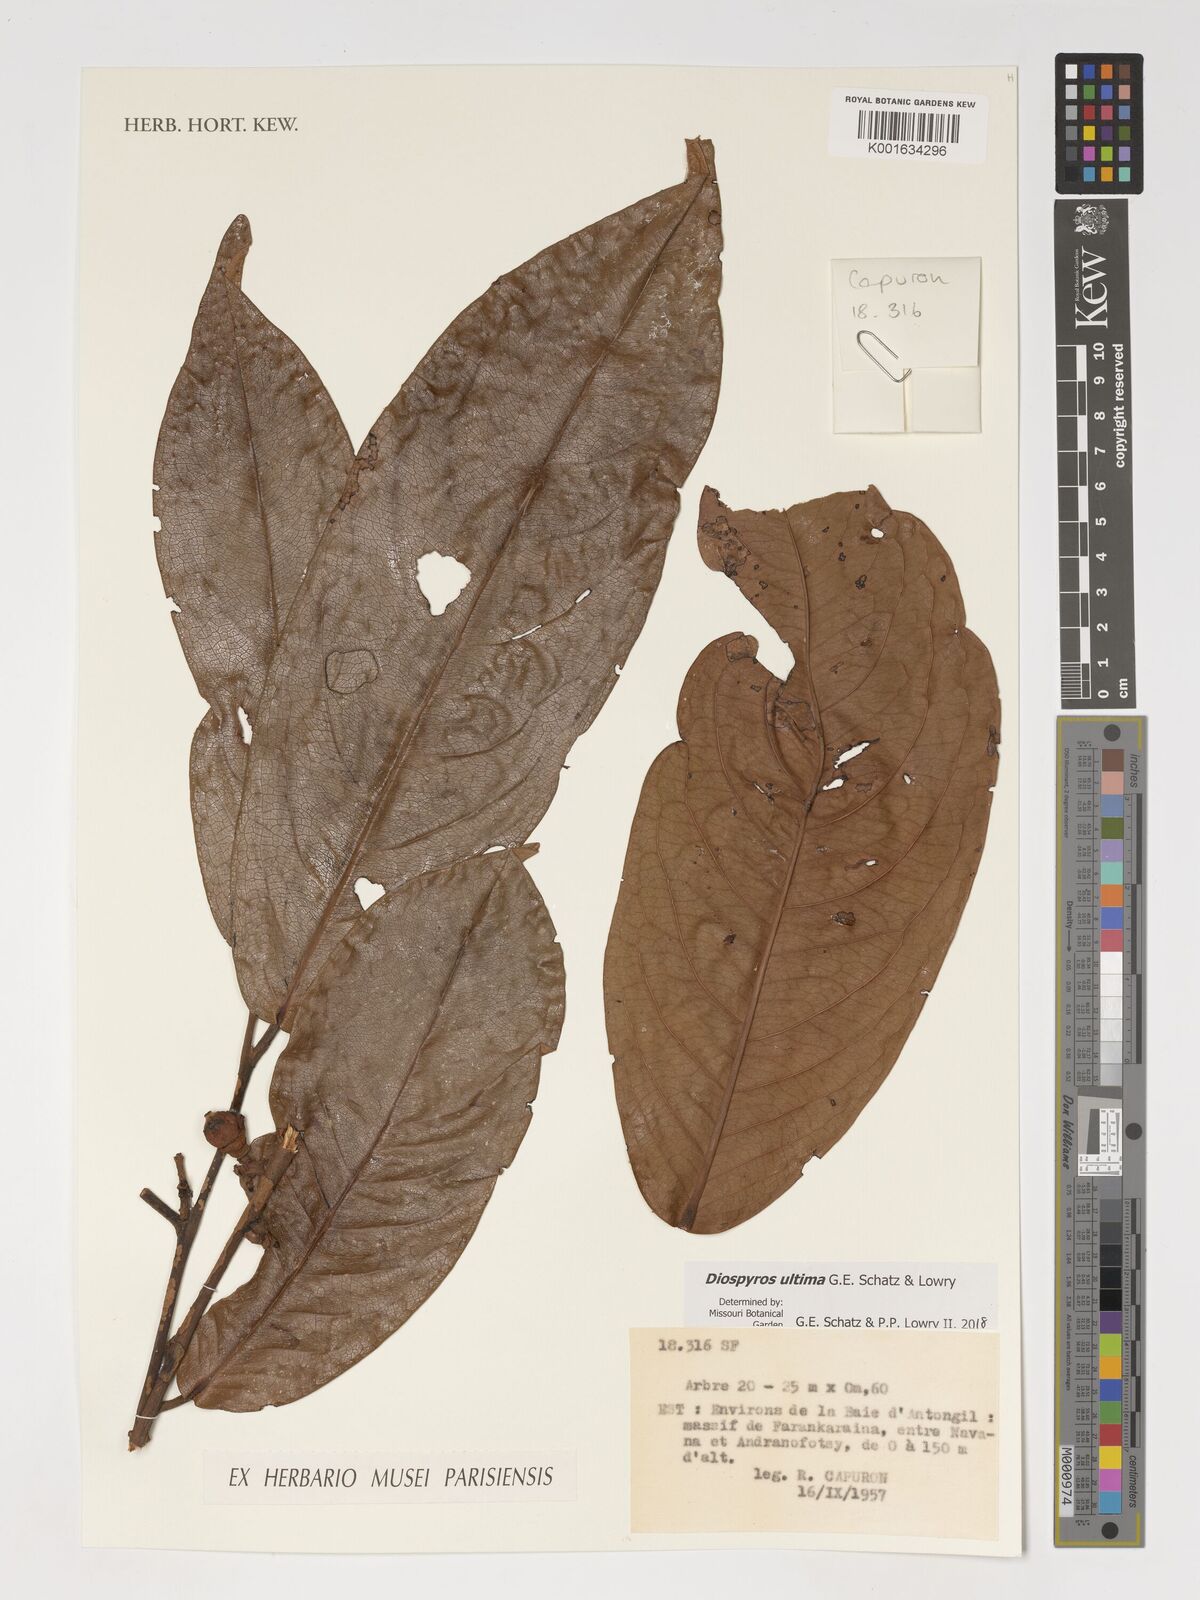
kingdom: Plantae
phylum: Tracheophyta
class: Magnoliopsida
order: Ericales
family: Ebenaceae
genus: Diospyros
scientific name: Diospyros ultima
